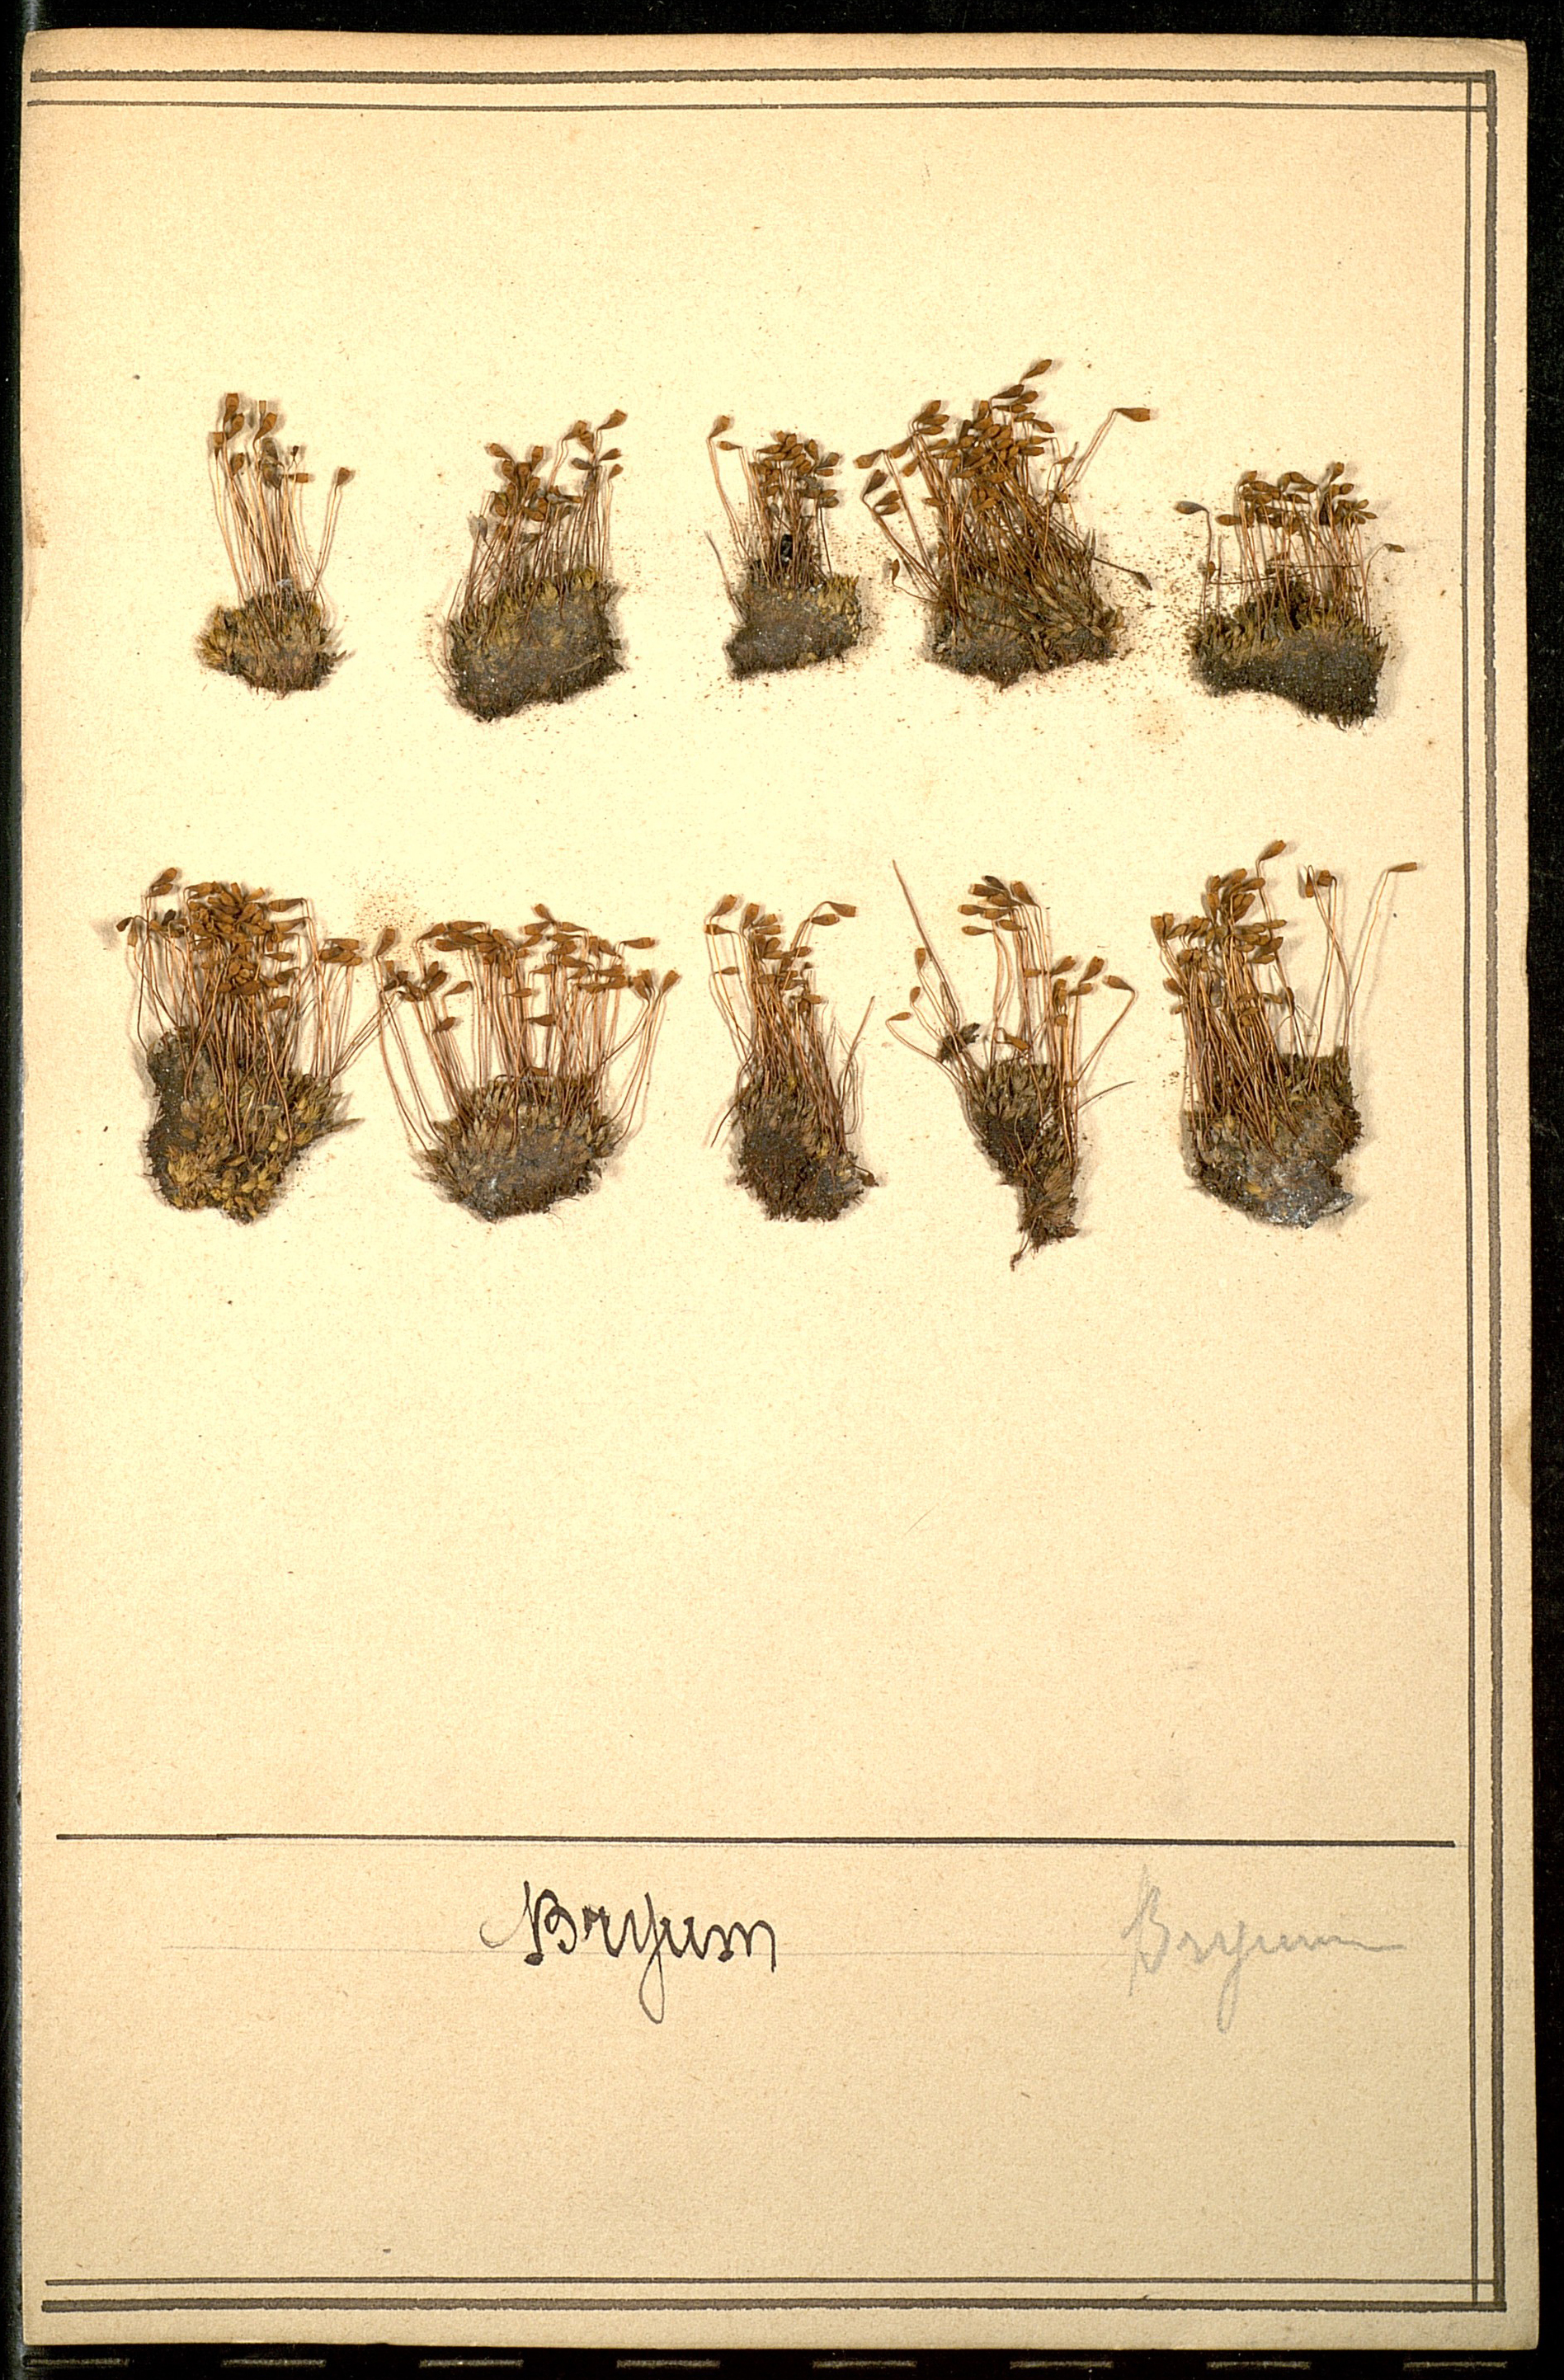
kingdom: Plantae
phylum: Bryophyta
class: Bryopsida
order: Bryales
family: Bryaceae
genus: Bryum
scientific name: Bryum
